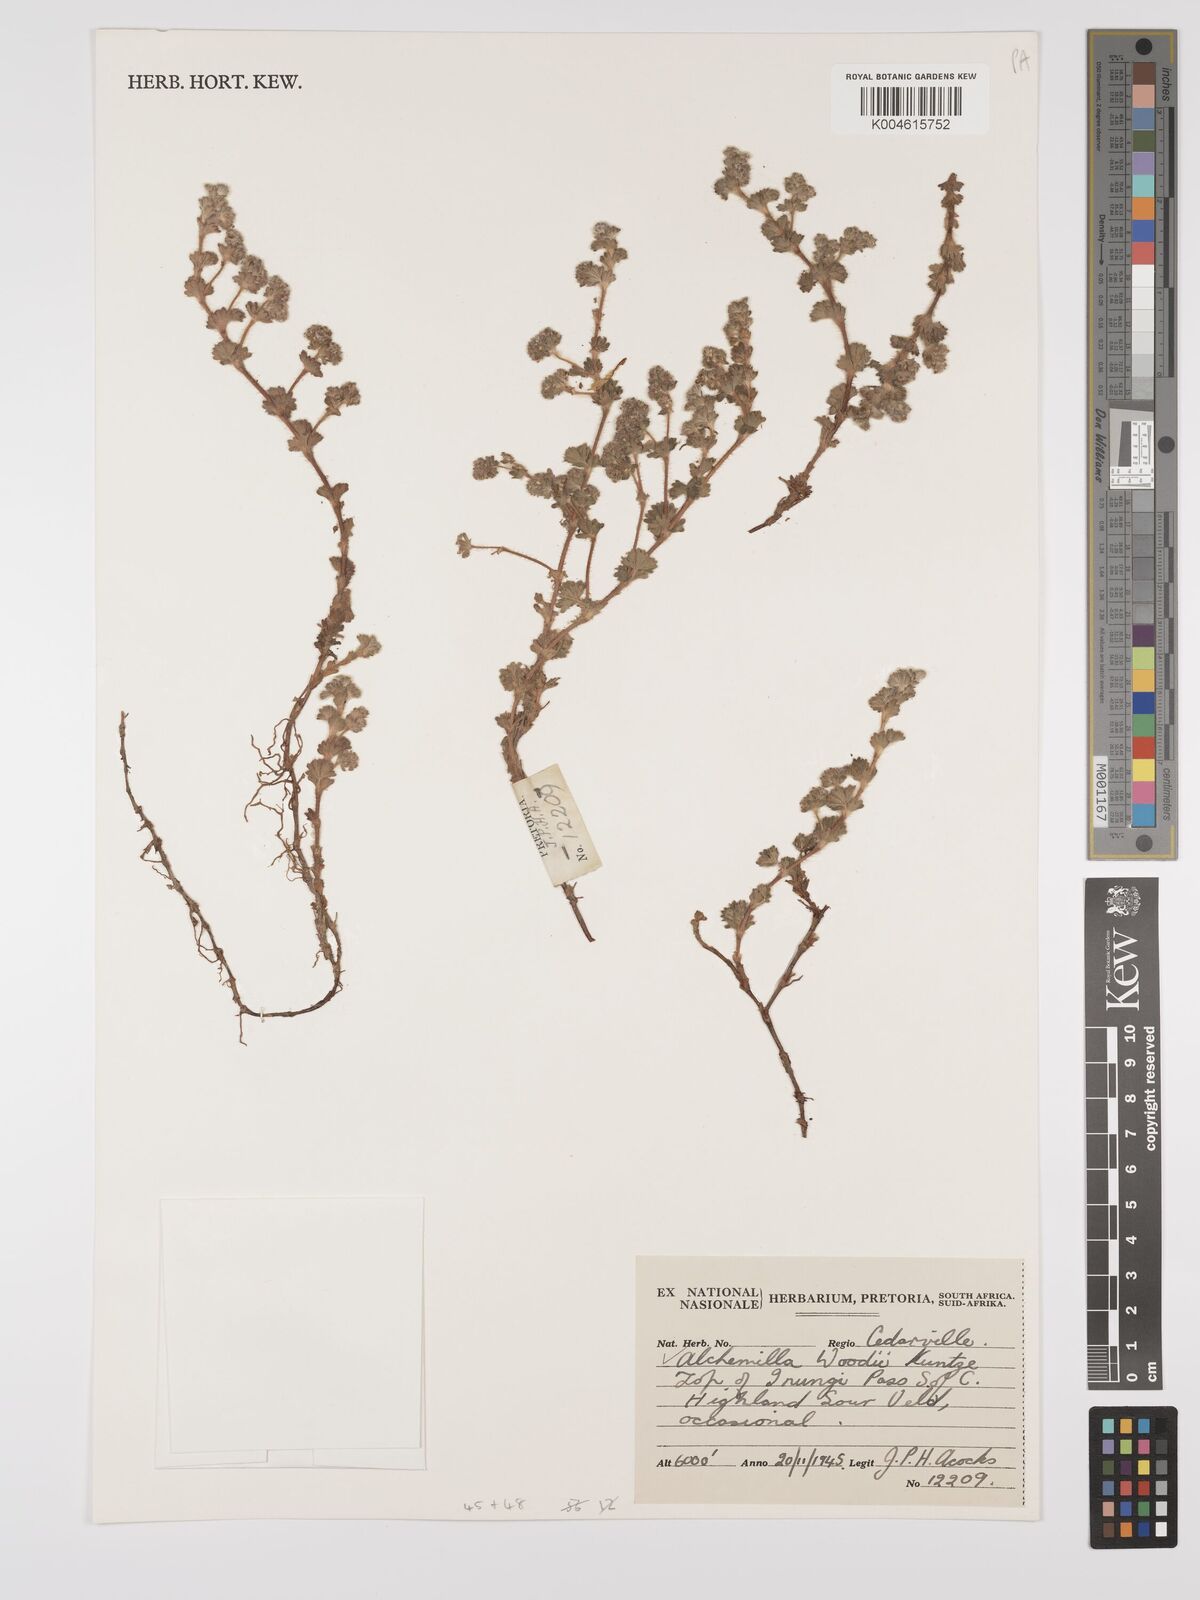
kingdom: Plantae
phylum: Tracheophyta
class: Magnoliopsida
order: Rosales
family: Rosaceae
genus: Alchemilla
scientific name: Alchemilla woodii
